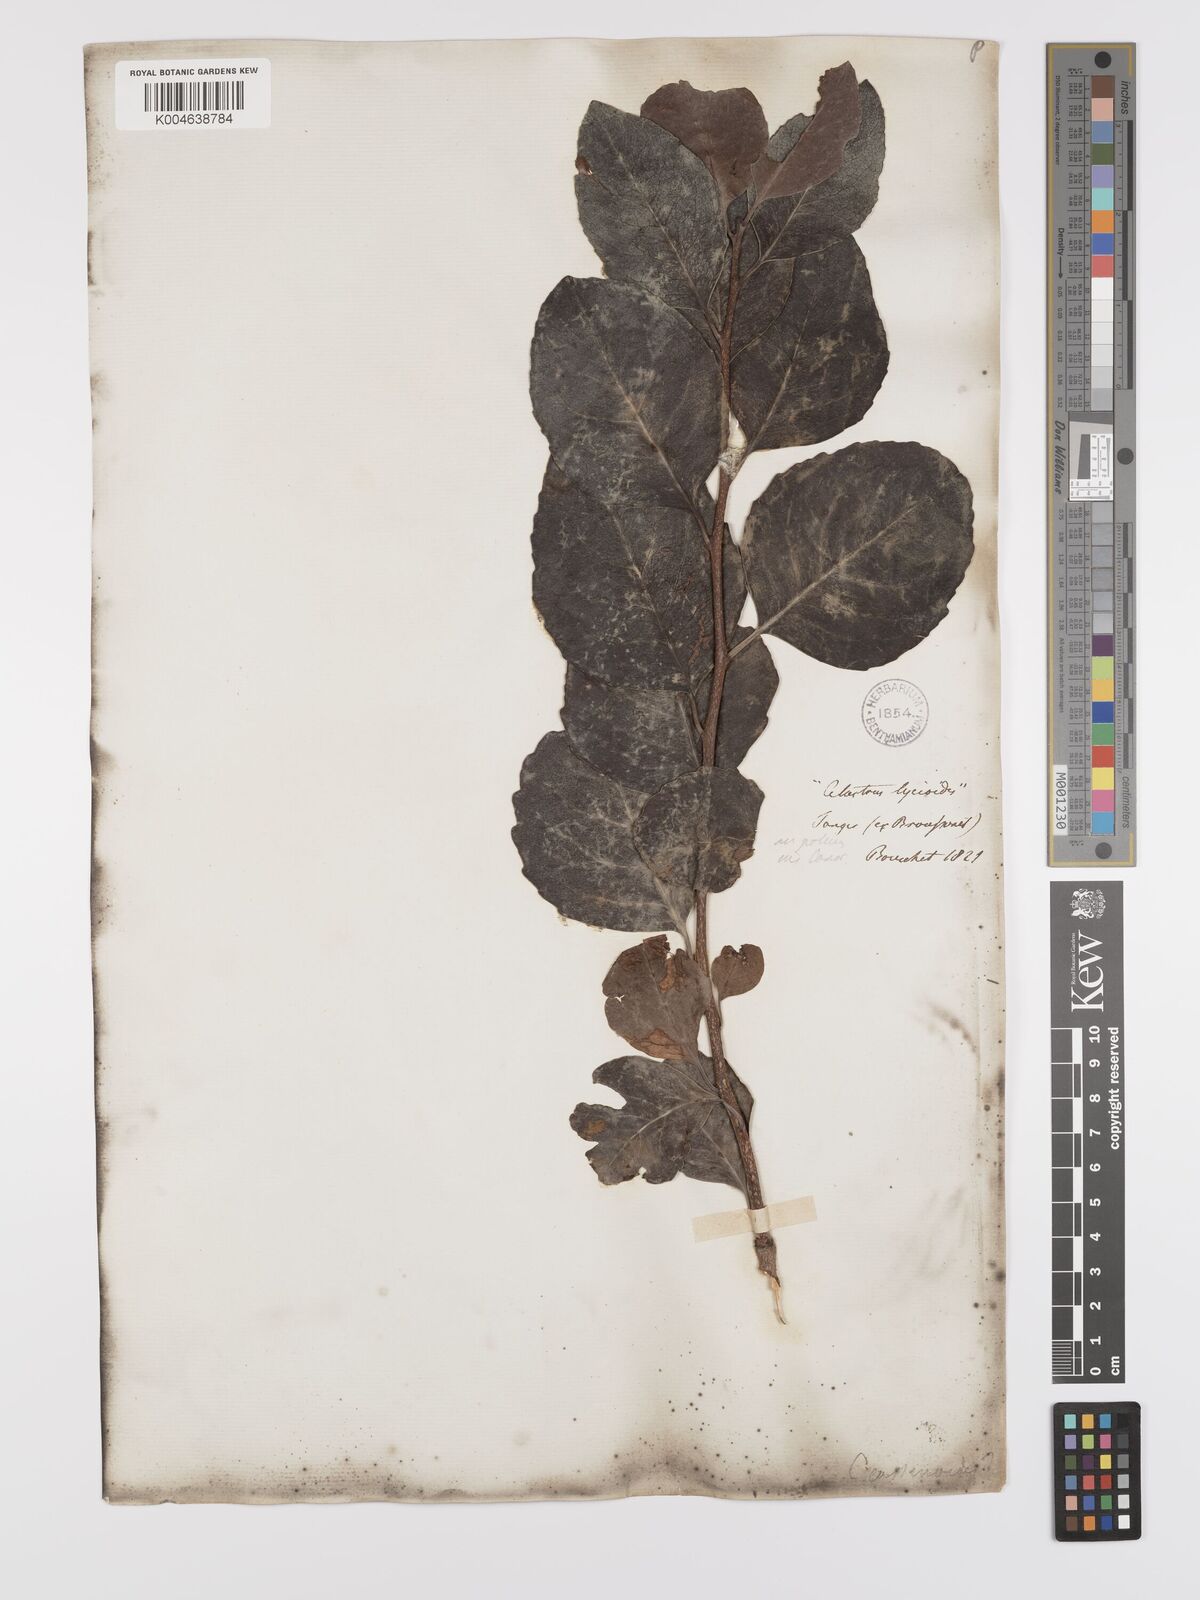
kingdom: Plantae
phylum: Tracheophyta
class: Magnoliopsida
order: Celastrales
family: Celastraceae
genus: Gymnosporia
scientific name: Gymnosporia cassinoides
